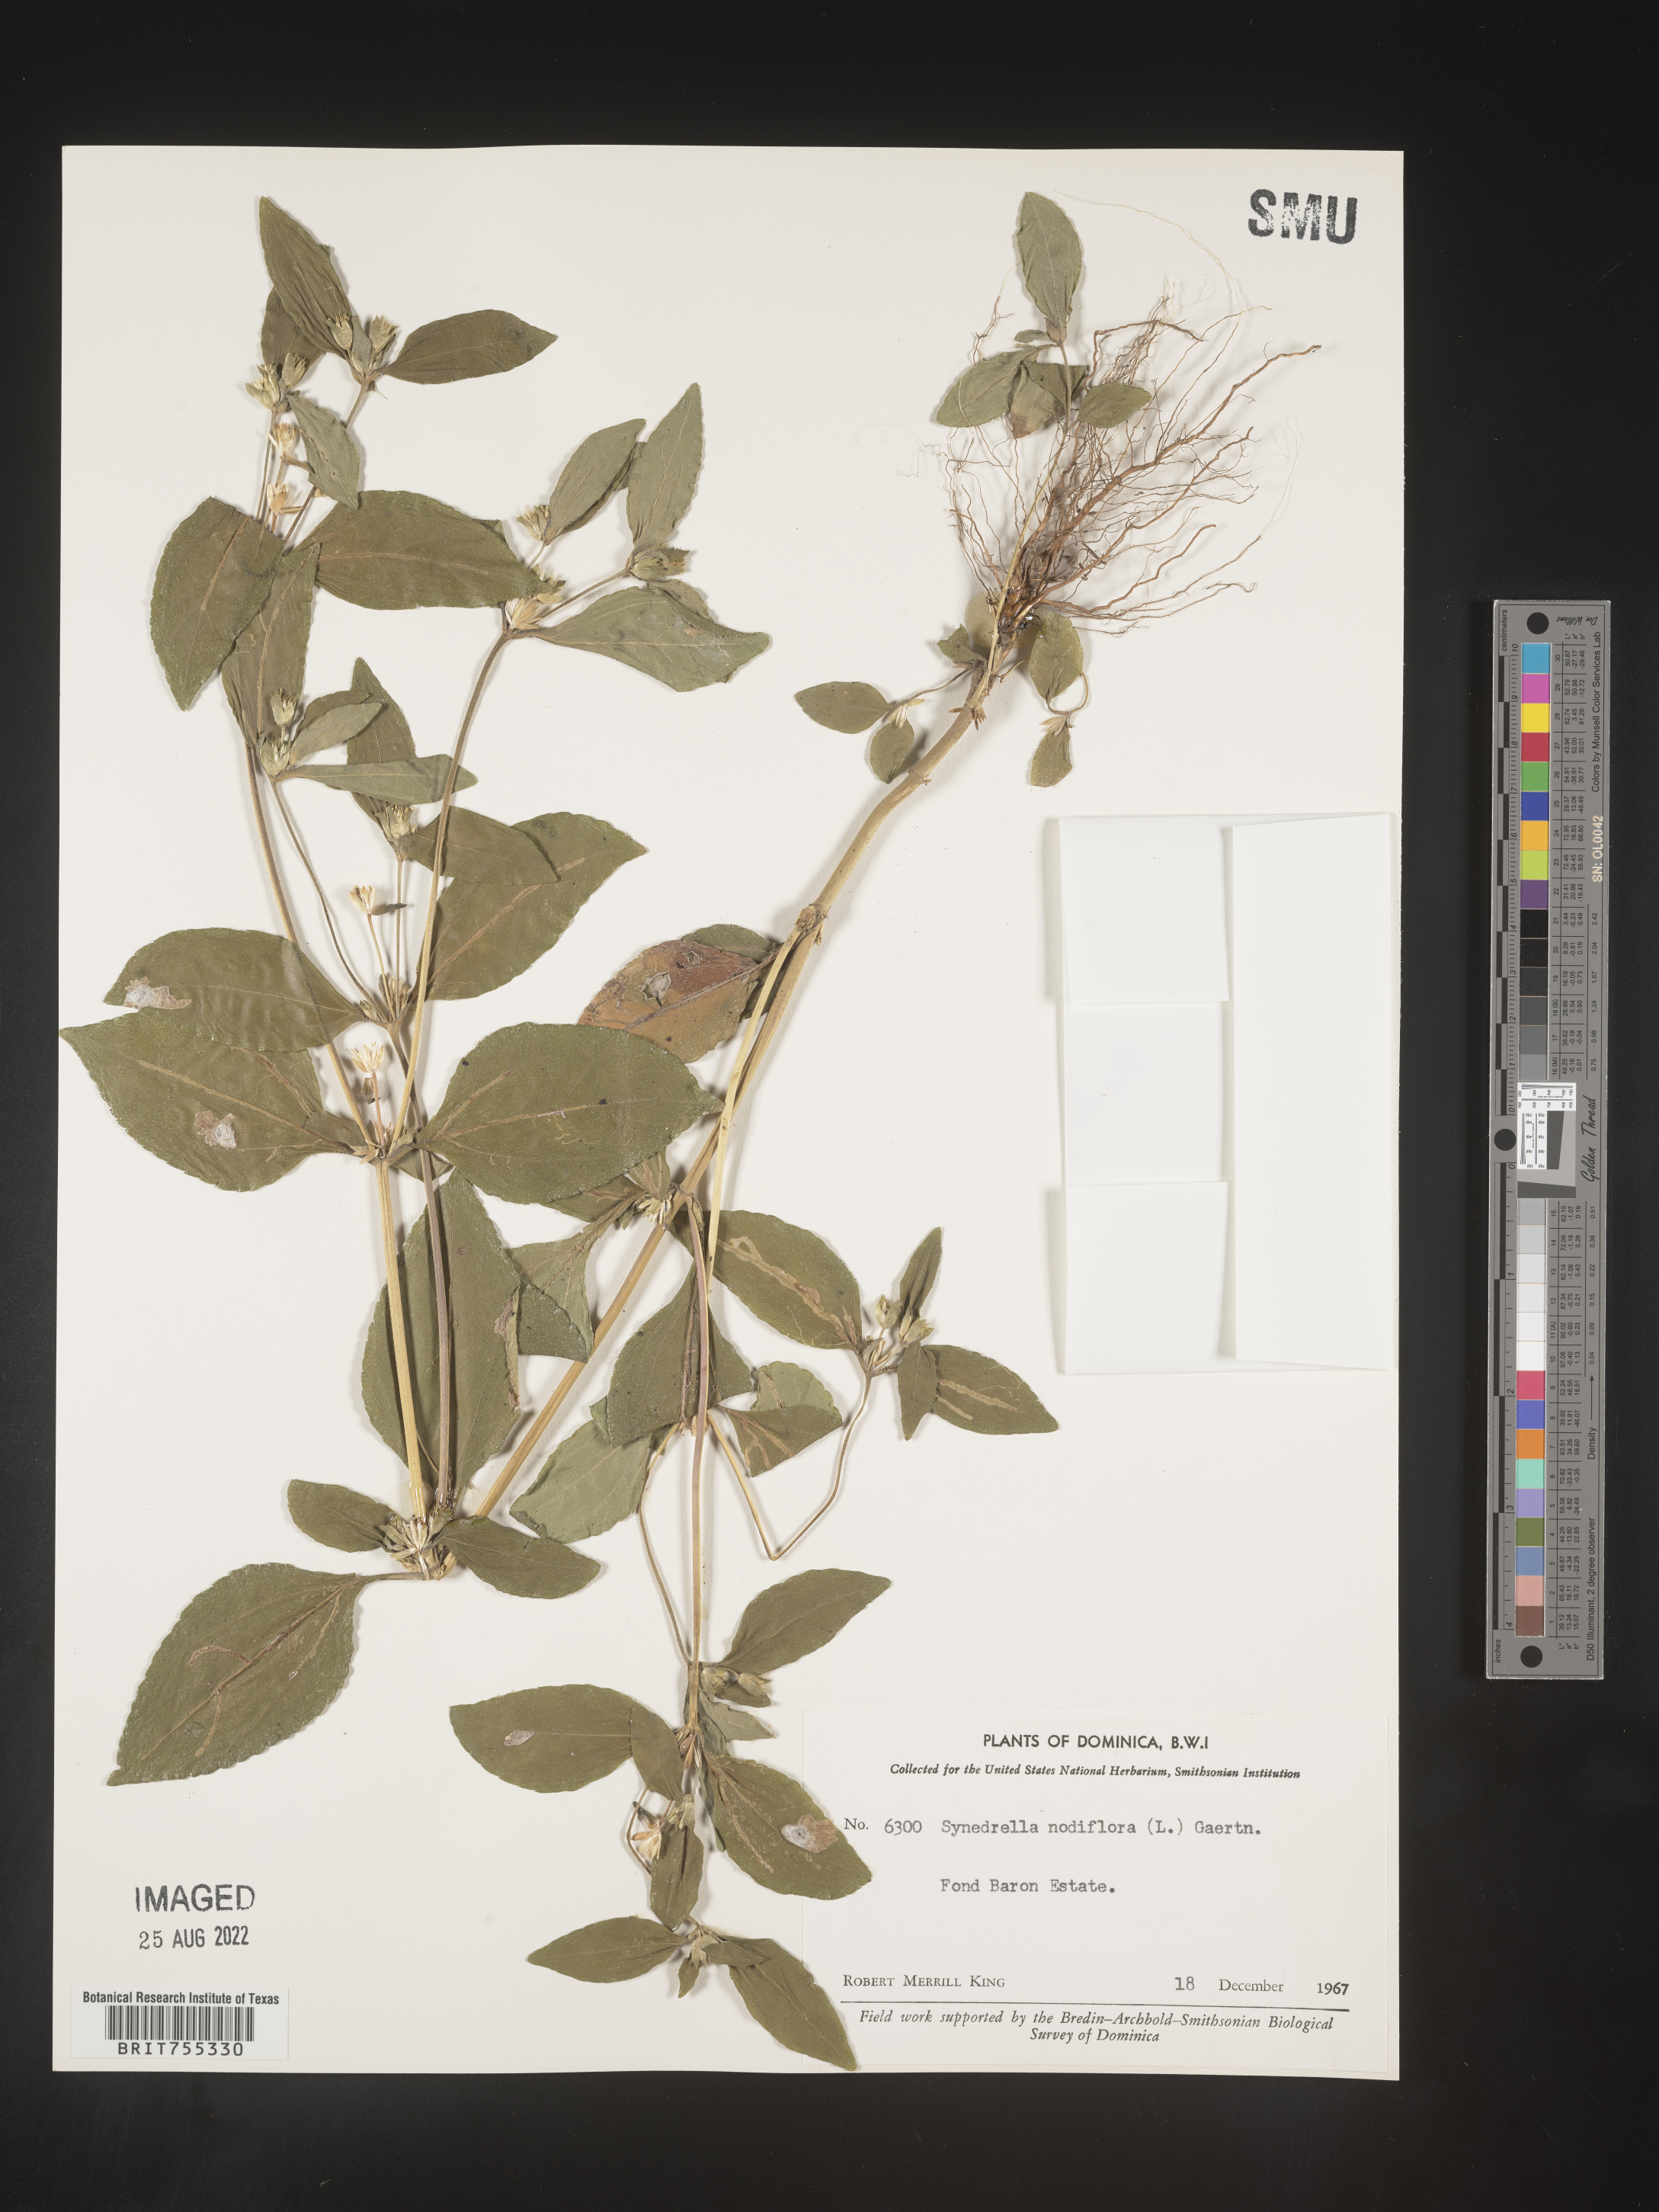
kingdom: Plantae
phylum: Tracheophyta
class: Magnoliopsida
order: Asterales
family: Asteraceae
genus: Synedrella
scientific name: Synedrella
